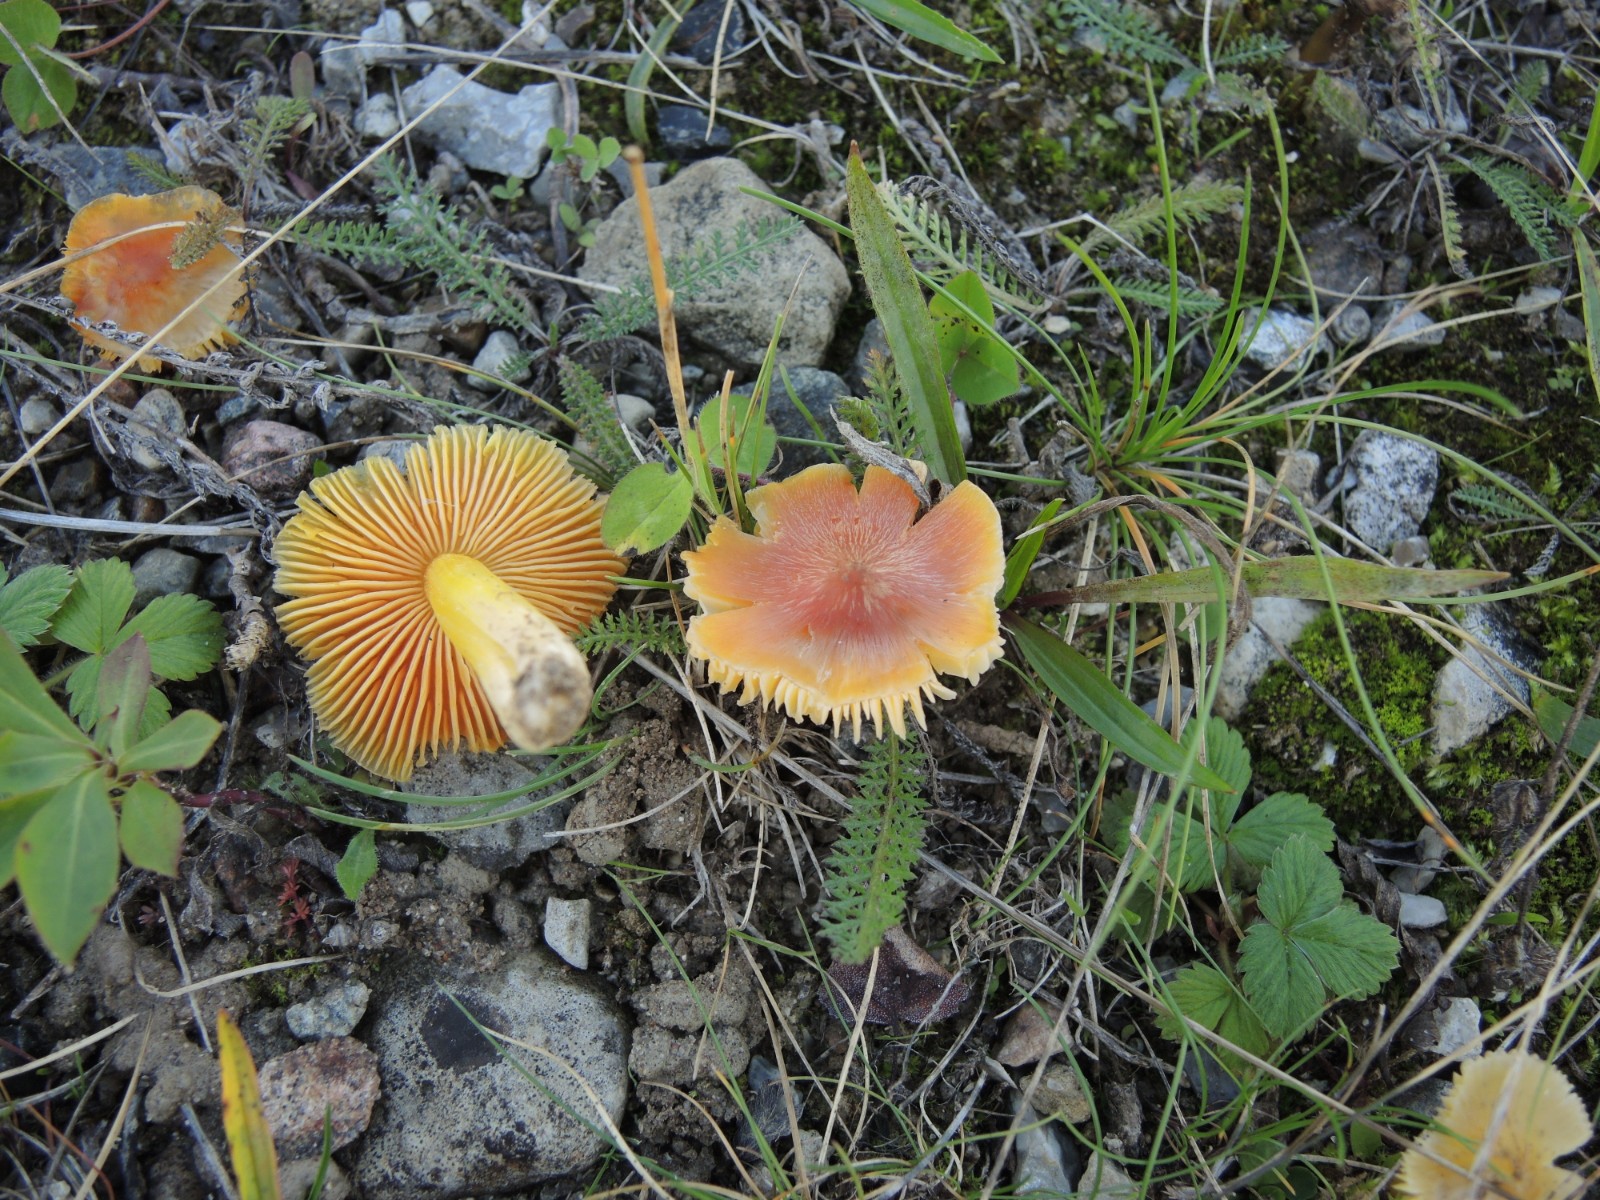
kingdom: Fungi
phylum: Basidiomycota
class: Agaricomycetes
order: Agaricales
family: Hygrophoraceae
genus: Hygrocybe
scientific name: Hygrocybe acutoconica
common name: Konrads vokshat
